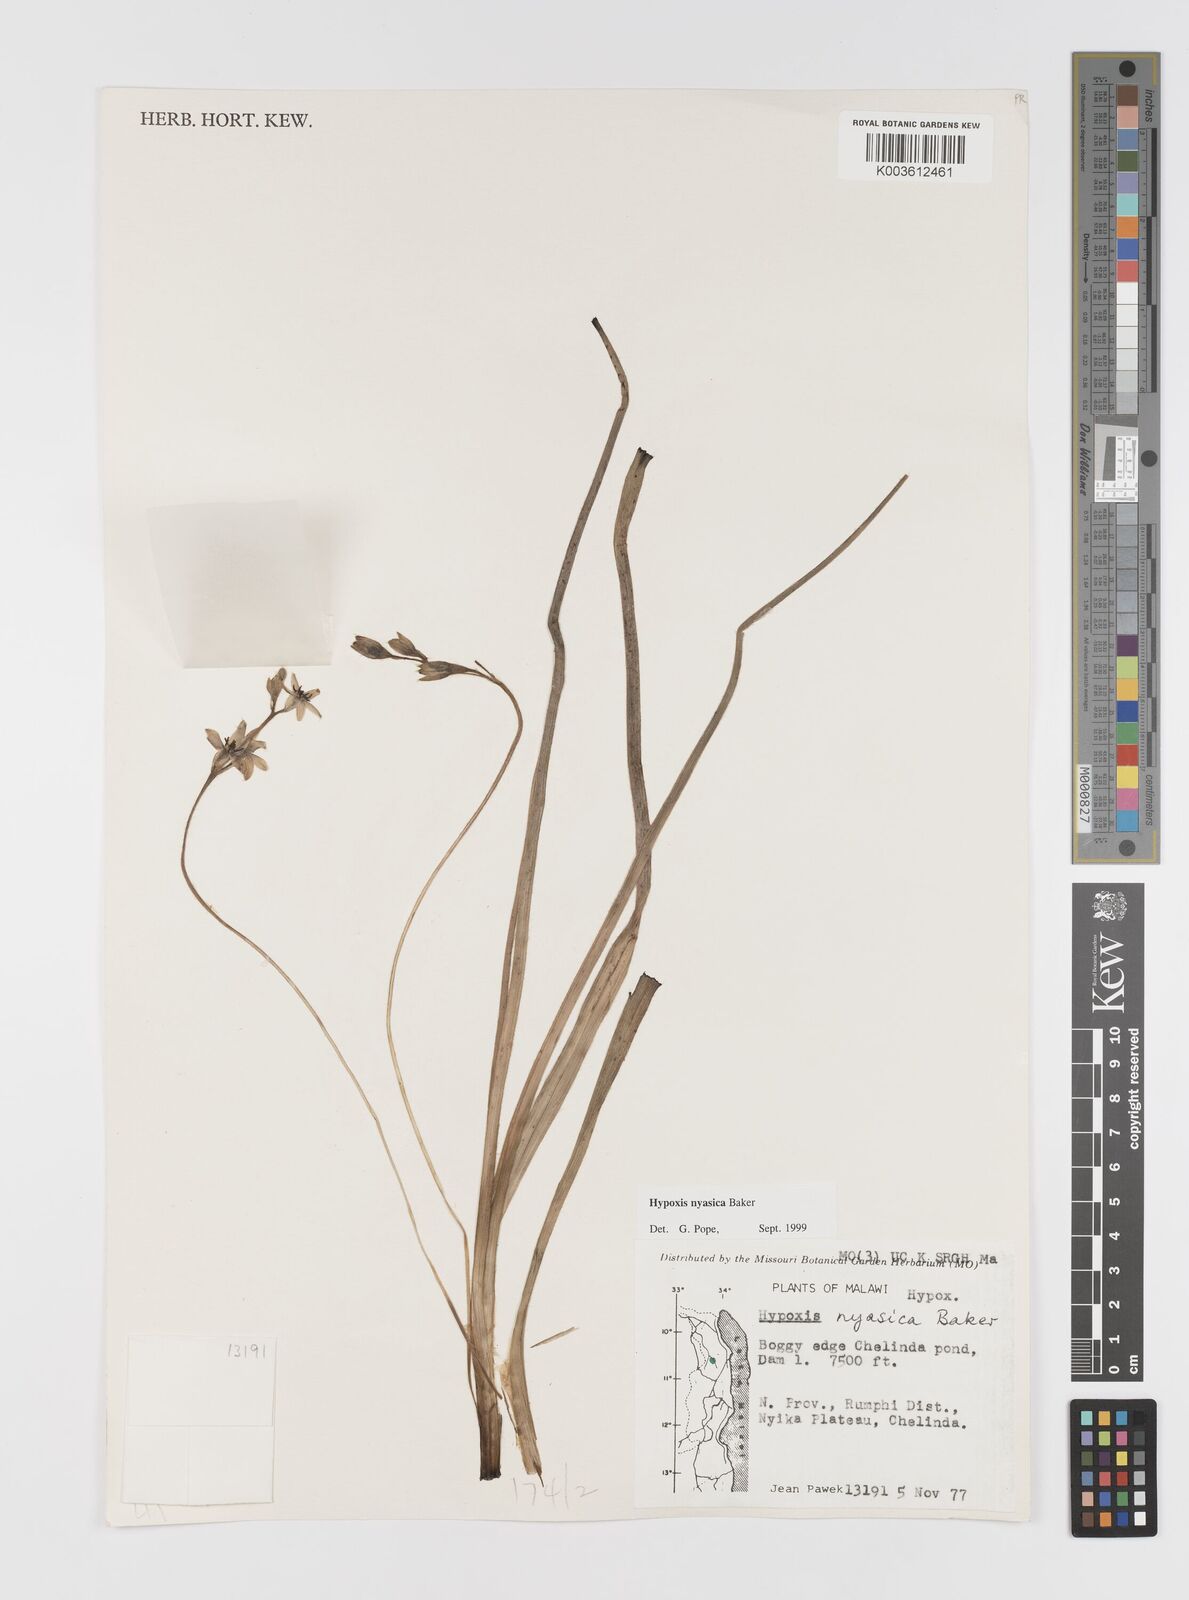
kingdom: Plantae
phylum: Tracheophyta
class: Liliopsida
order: Asparagales
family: Hypoxidaceae
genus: Hypoxis
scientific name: Hypoxis nyasica
